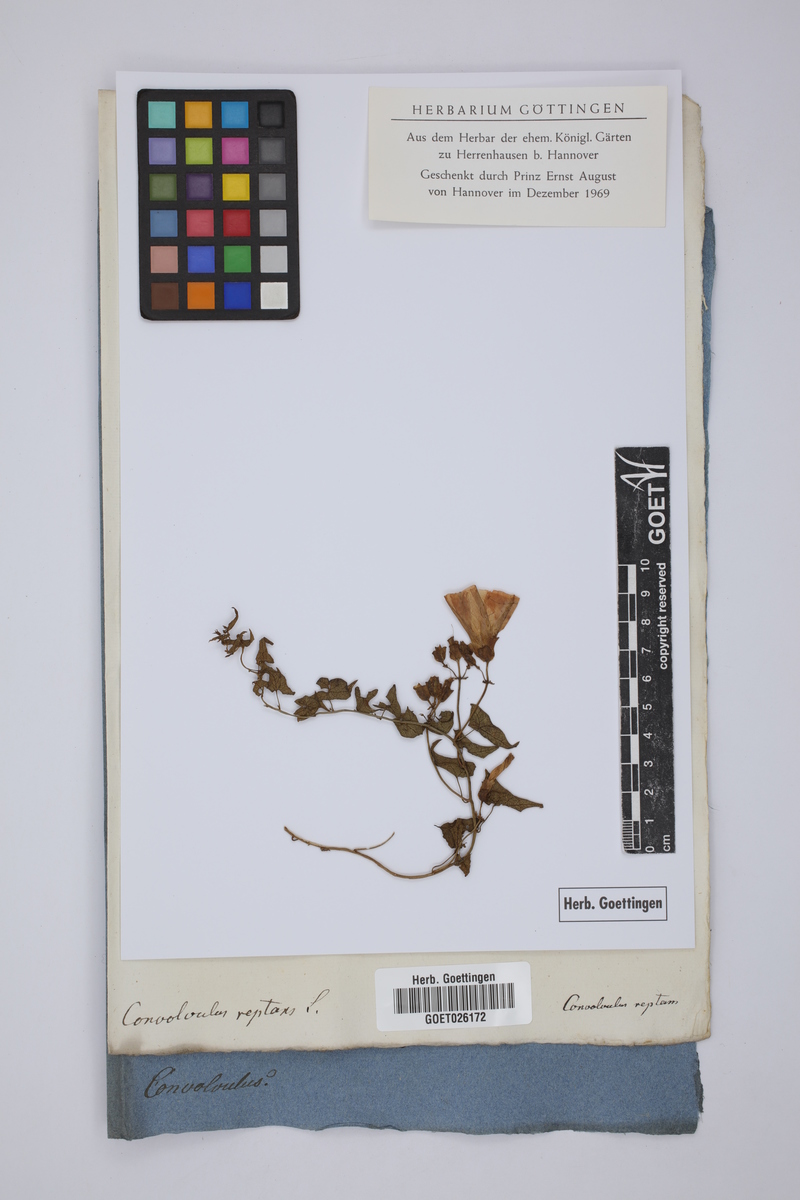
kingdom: Plantae
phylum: Tracheophyta
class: Magnoliopsida
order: Solanales
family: Convolvulaceae
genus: Merremia
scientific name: Merremia hirta
